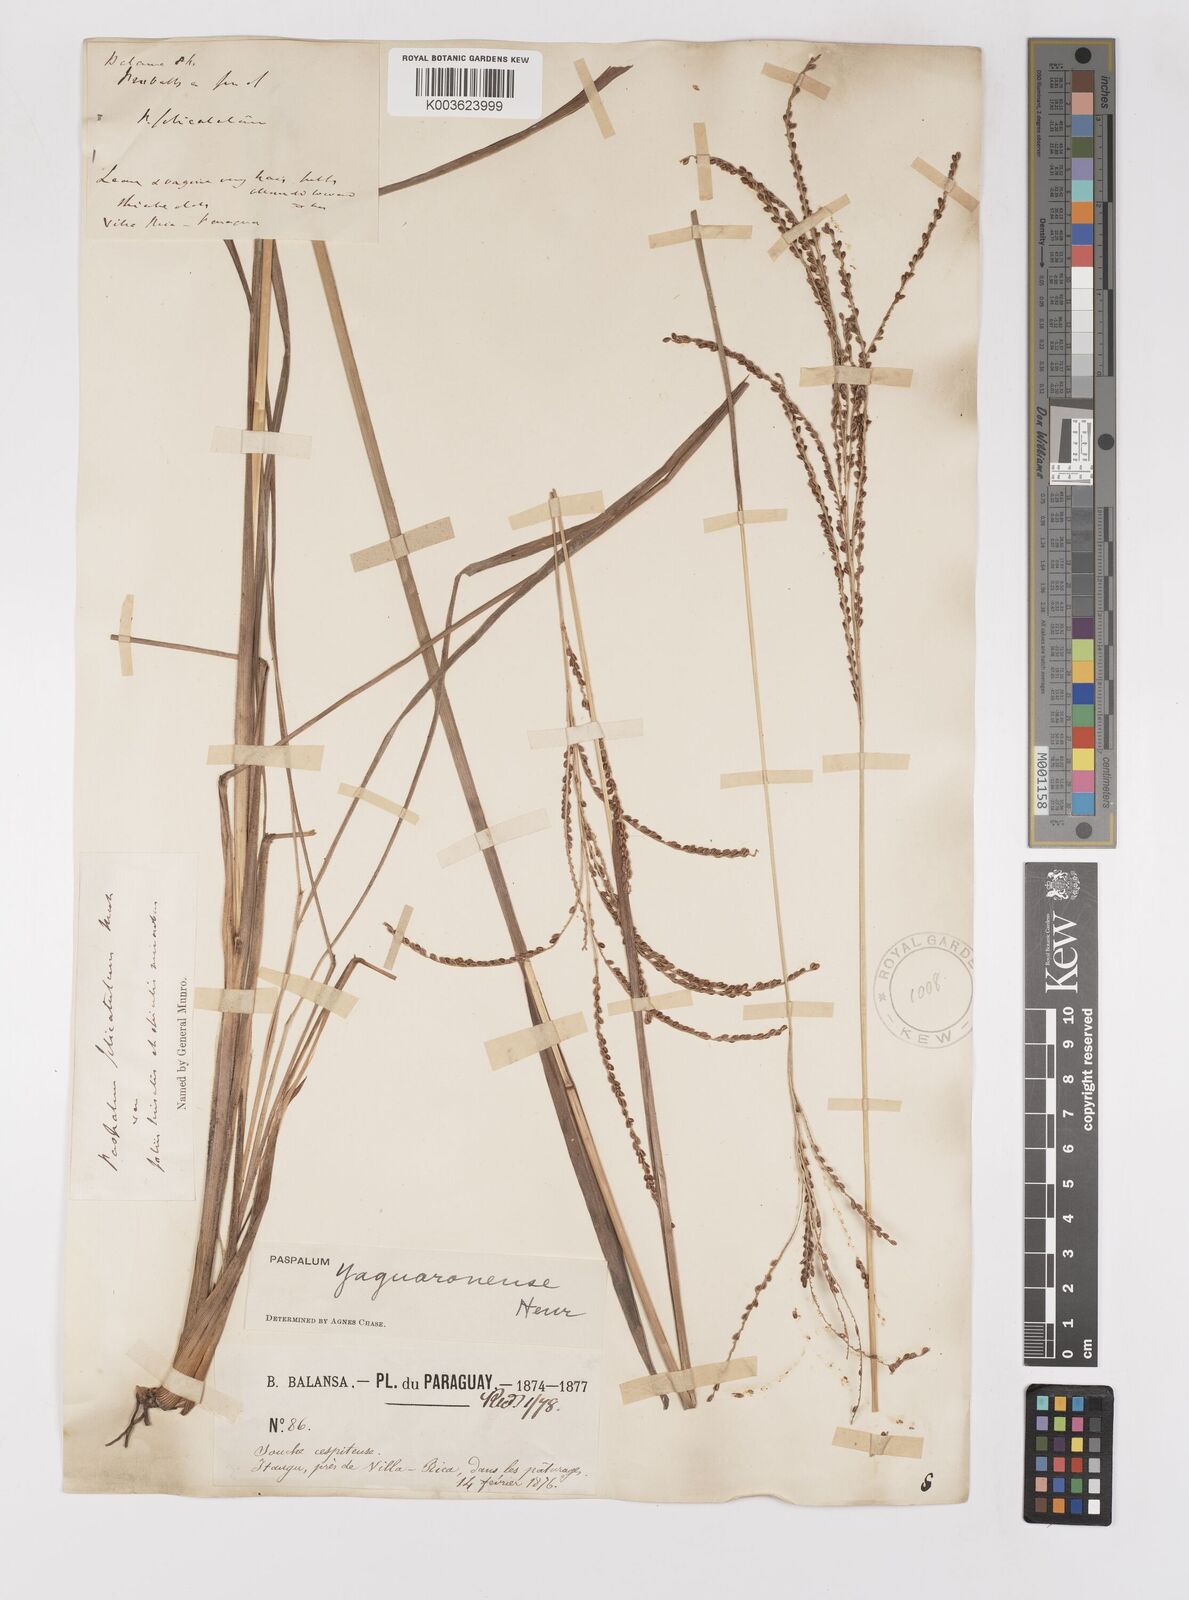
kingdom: Plantae
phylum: Tracheophyta
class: Liliopsida
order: Poales
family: Poaceae
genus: Paspalum
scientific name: Paspalum glaucescens
